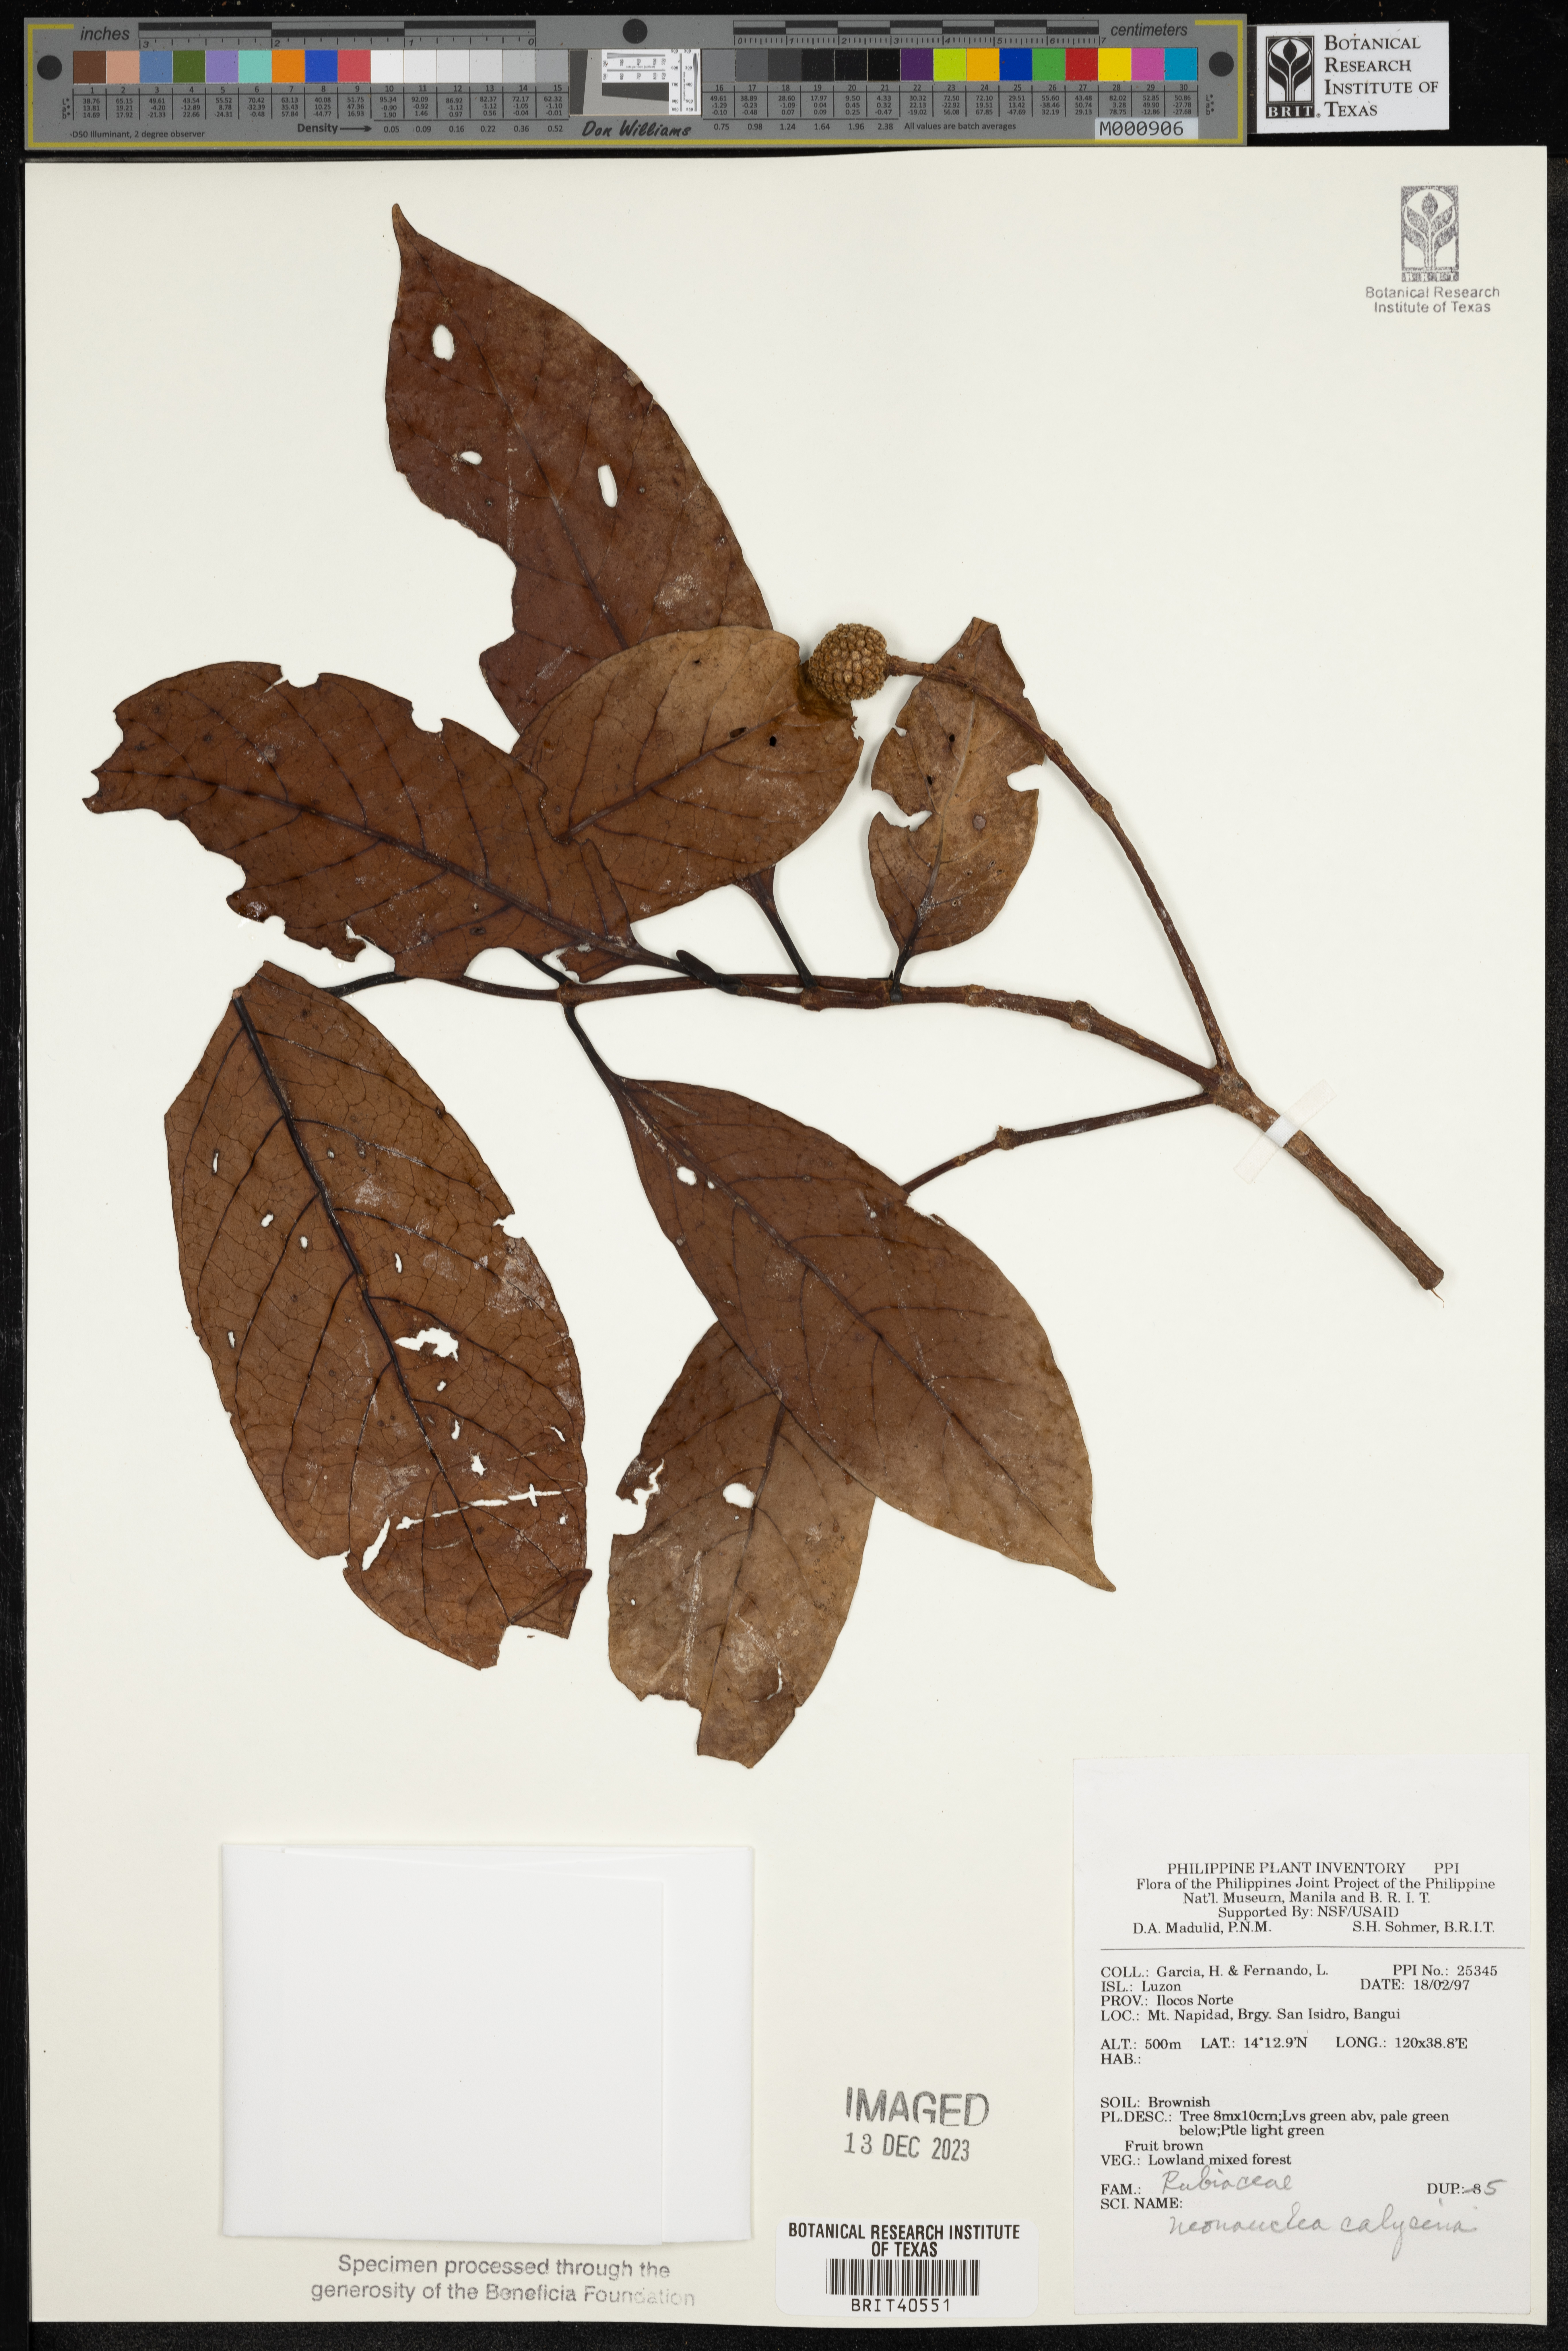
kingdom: Plantae
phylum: Tracheophyta
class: Magnoliopsida
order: Gentianales
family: Rubiaceae
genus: Neonauclea
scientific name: Neonauclea calycina
